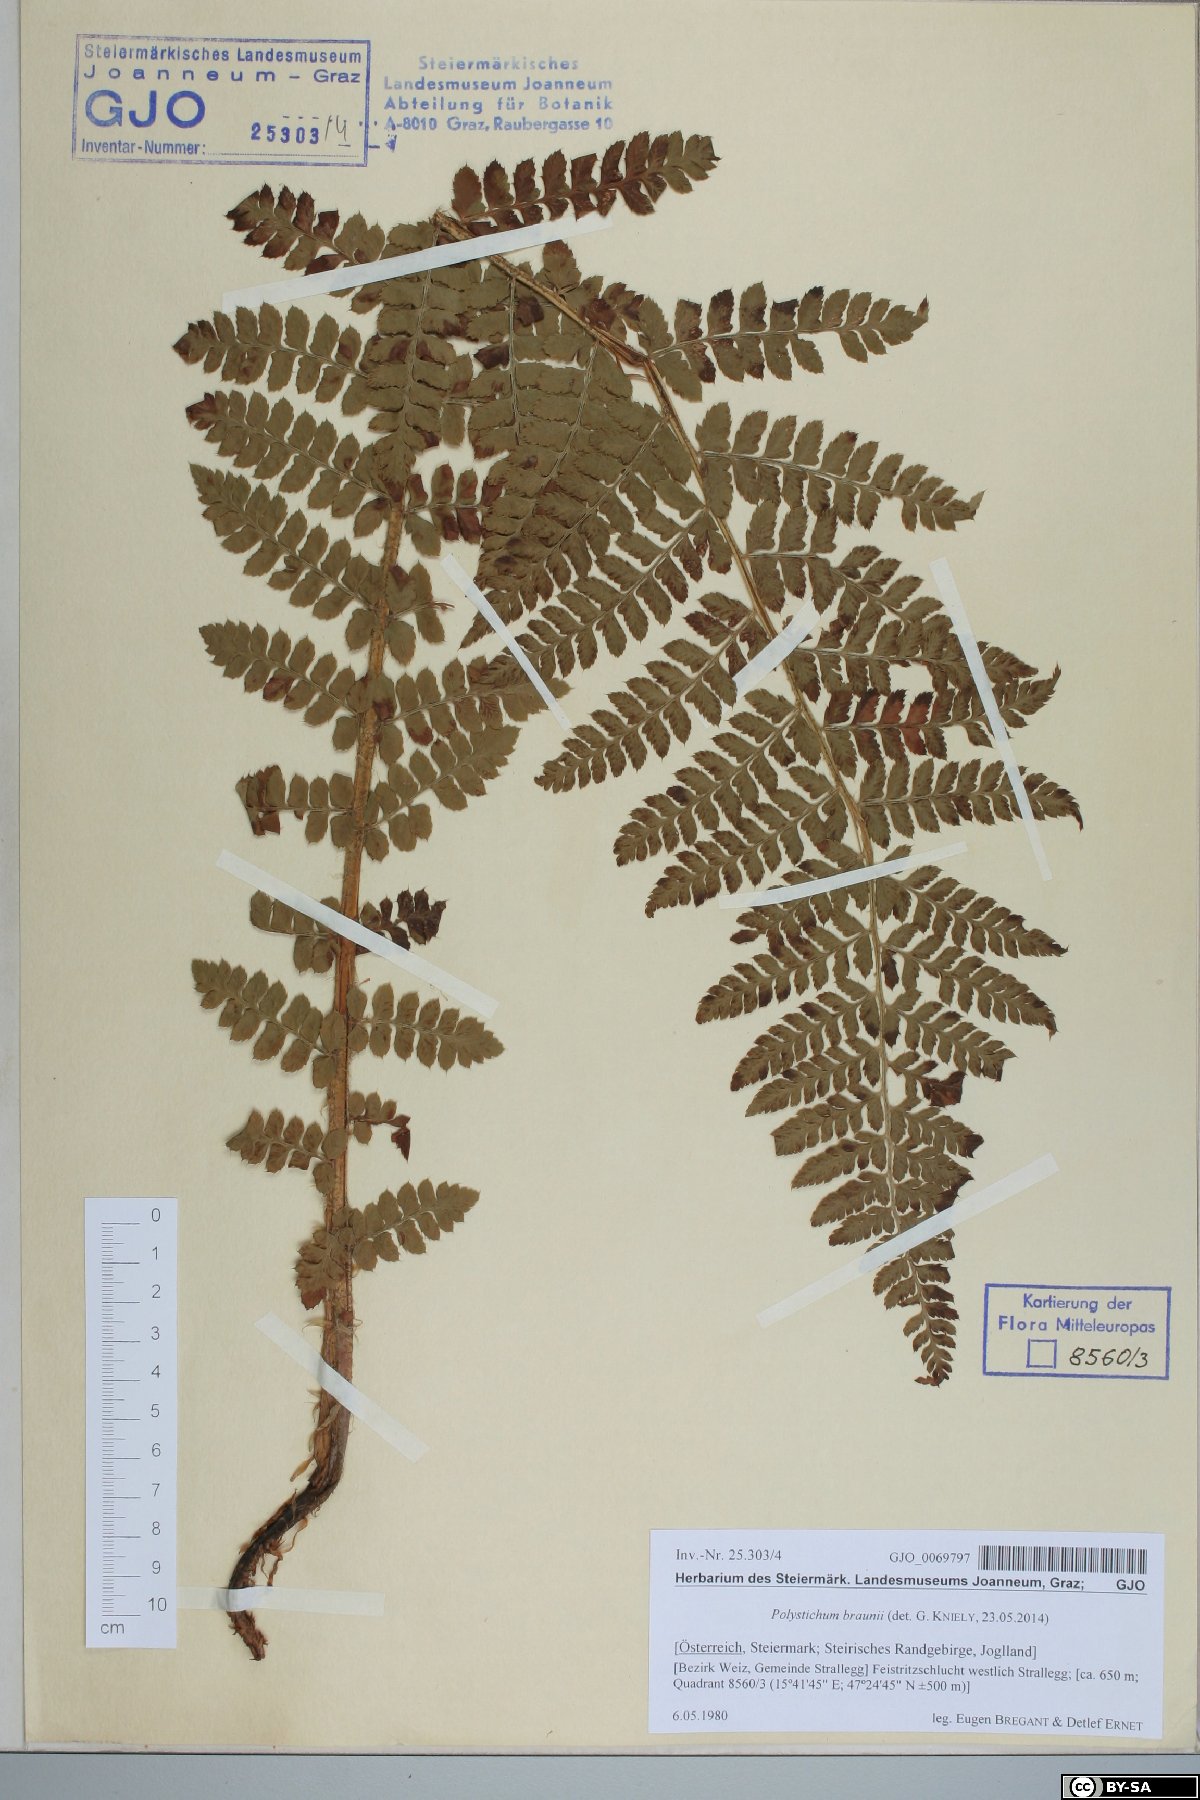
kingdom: Plantae
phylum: Tracheophyta
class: Polypodiopsida
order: Polypodiales
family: Dryopteridaceae
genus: Polystichum
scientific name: Polystichum braunii
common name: Braun's holly fern
